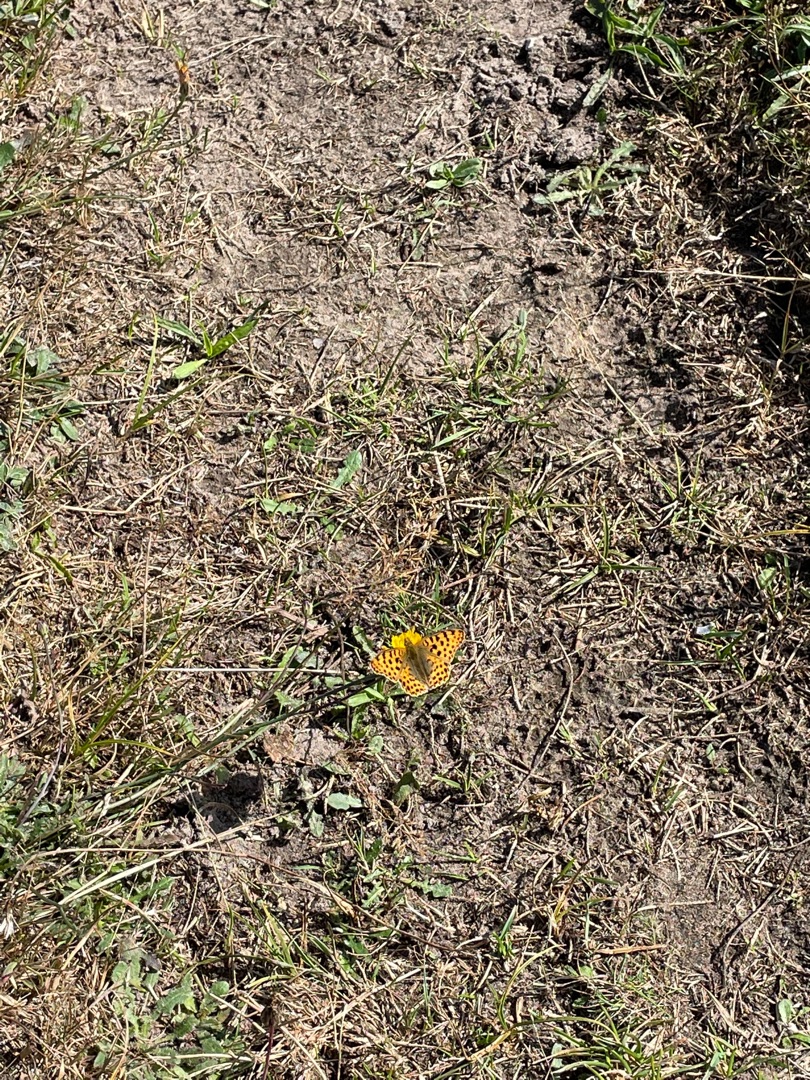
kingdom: Animalia
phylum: Arthropoda
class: Insecta
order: Lepidoptera
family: Nymphalidae
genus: Issoria
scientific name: Issoria lathonia
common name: Storplettet perlemorsommerfugl
